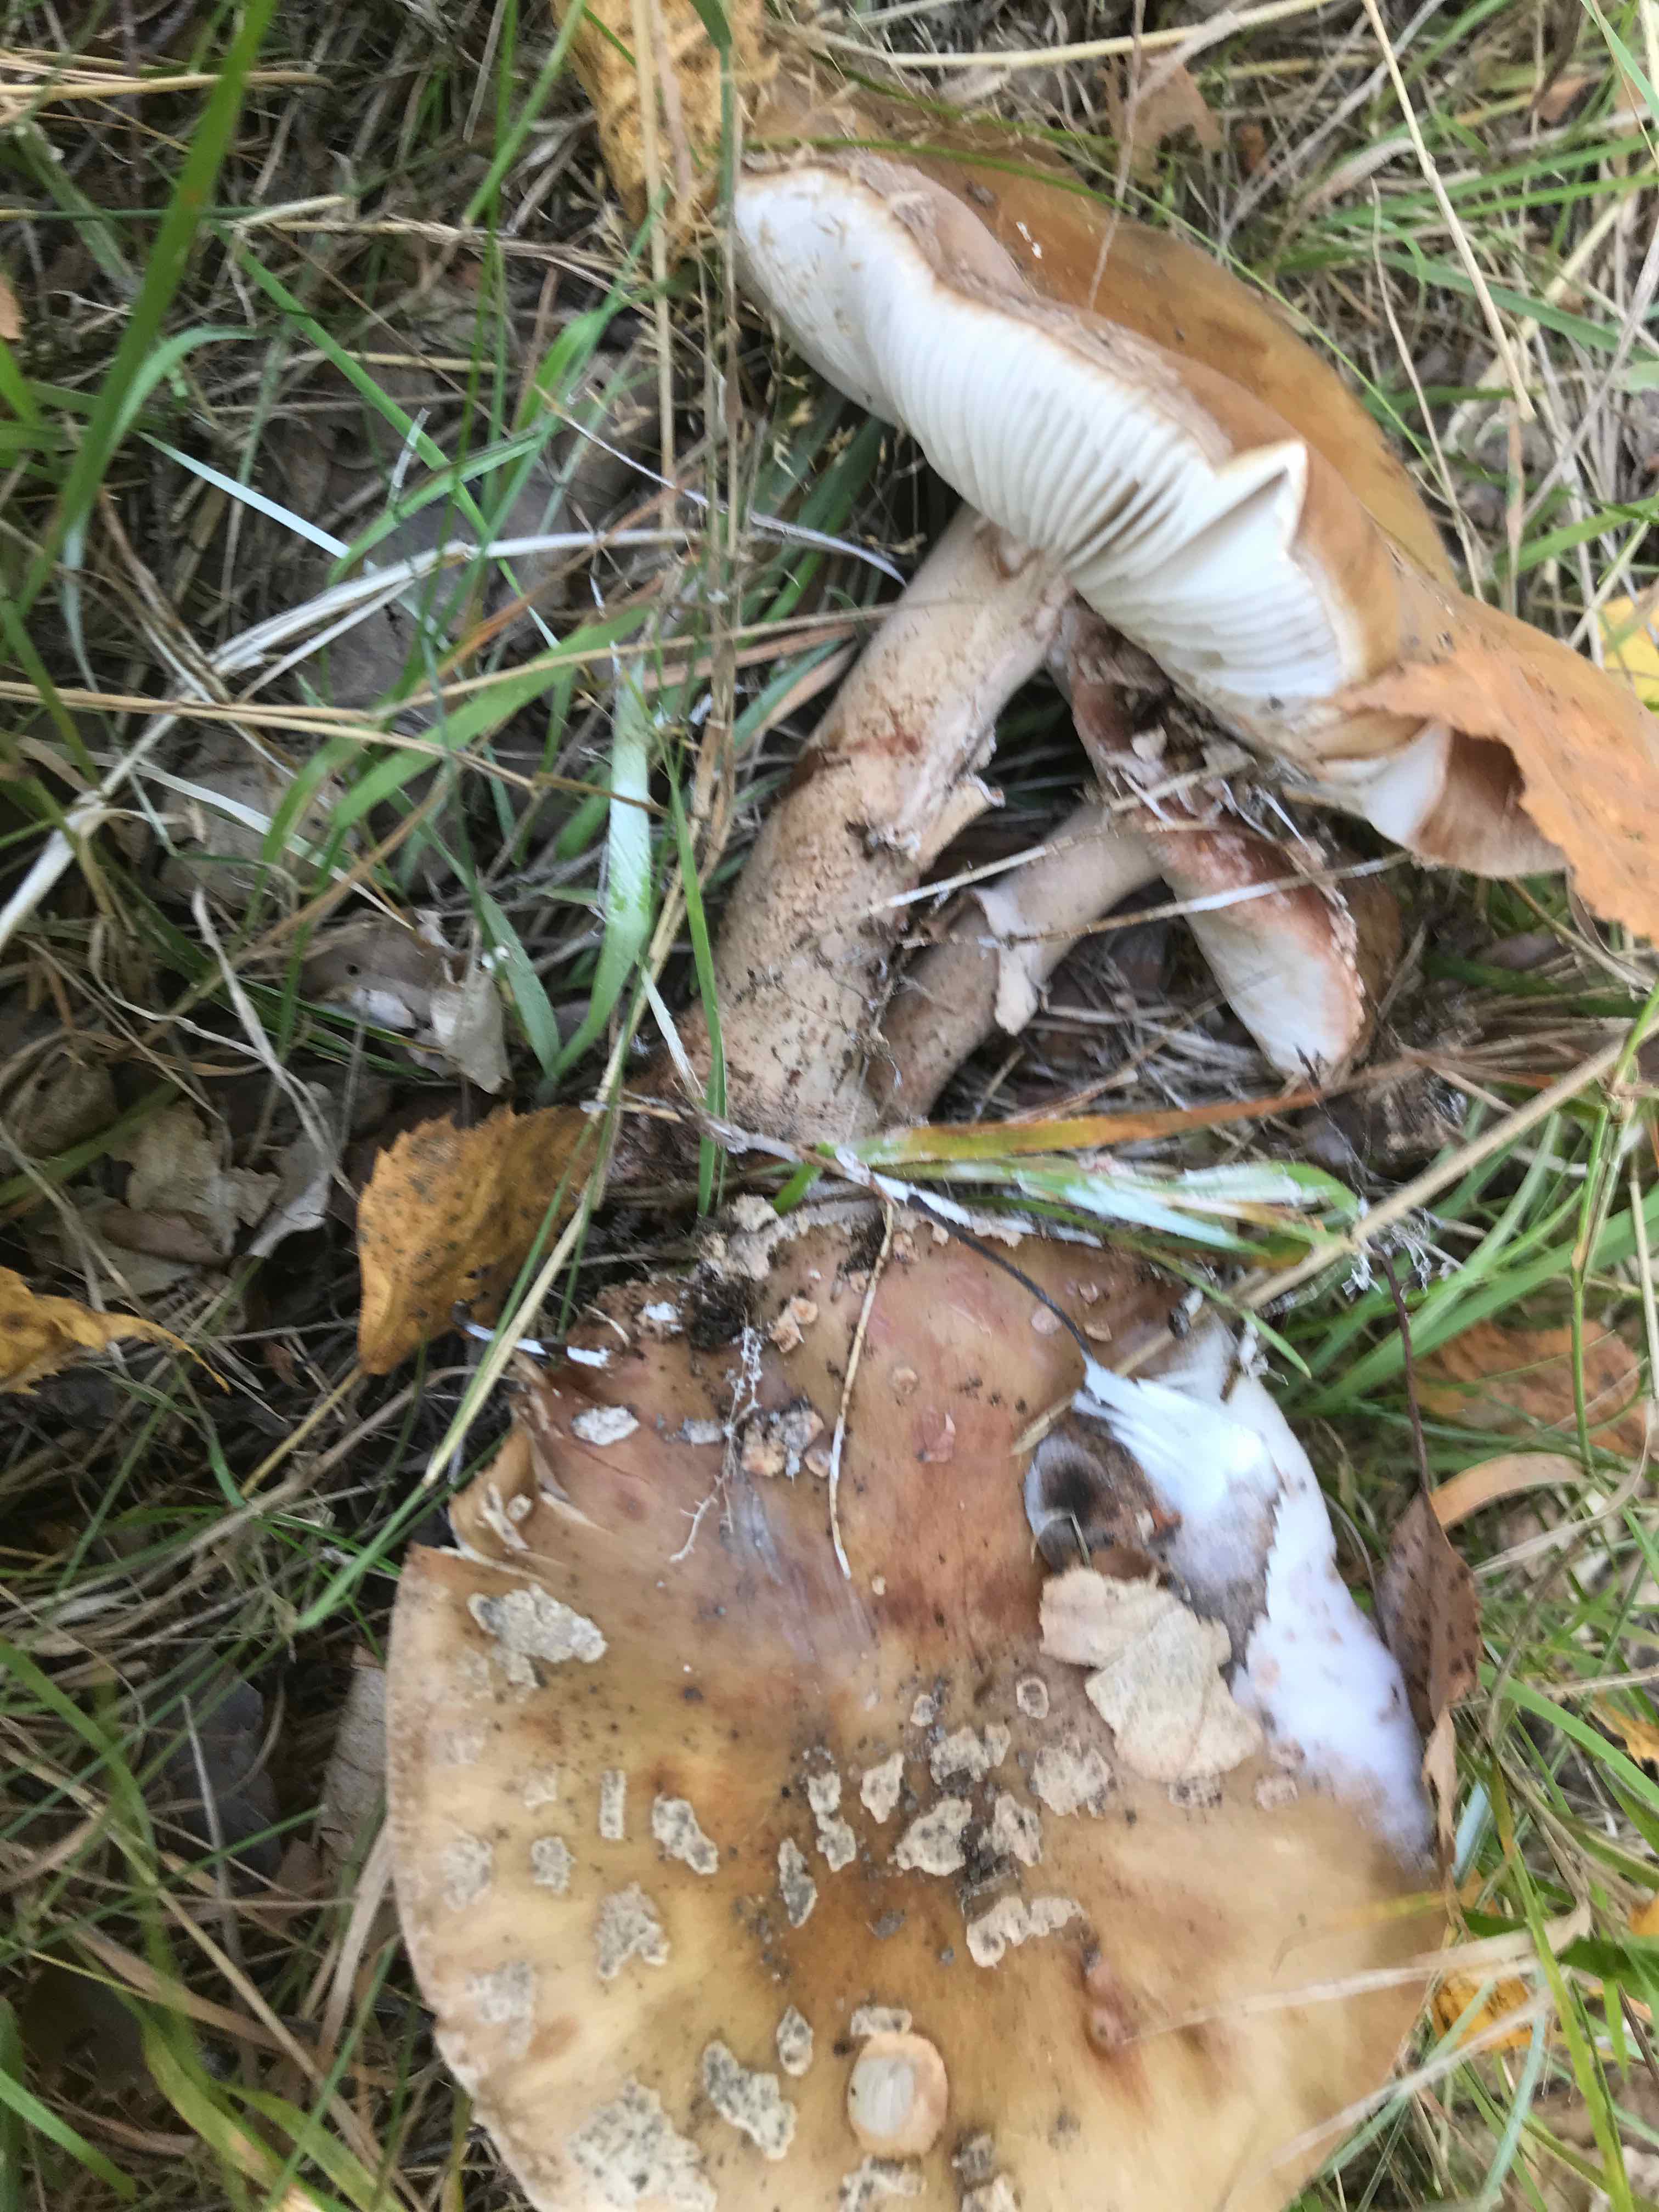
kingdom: Fungi
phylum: Basidiomycota
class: Agaricomycetes
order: Agaricales
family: Amanitaceae
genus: Amanita
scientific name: Amanita rubescens
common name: rødmende fluesvamp
